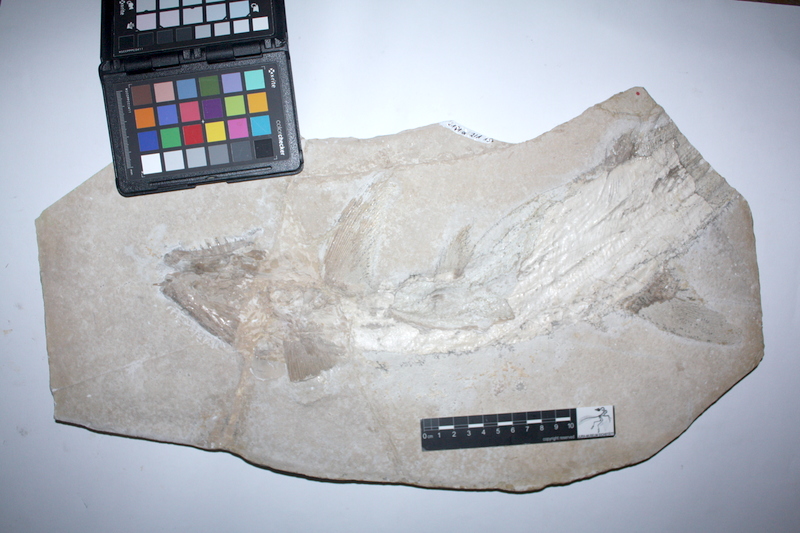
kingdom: Animalia
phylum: Chordata
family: Pachycormidae
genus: Sauropsis
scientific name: Sauropsis longimanus
